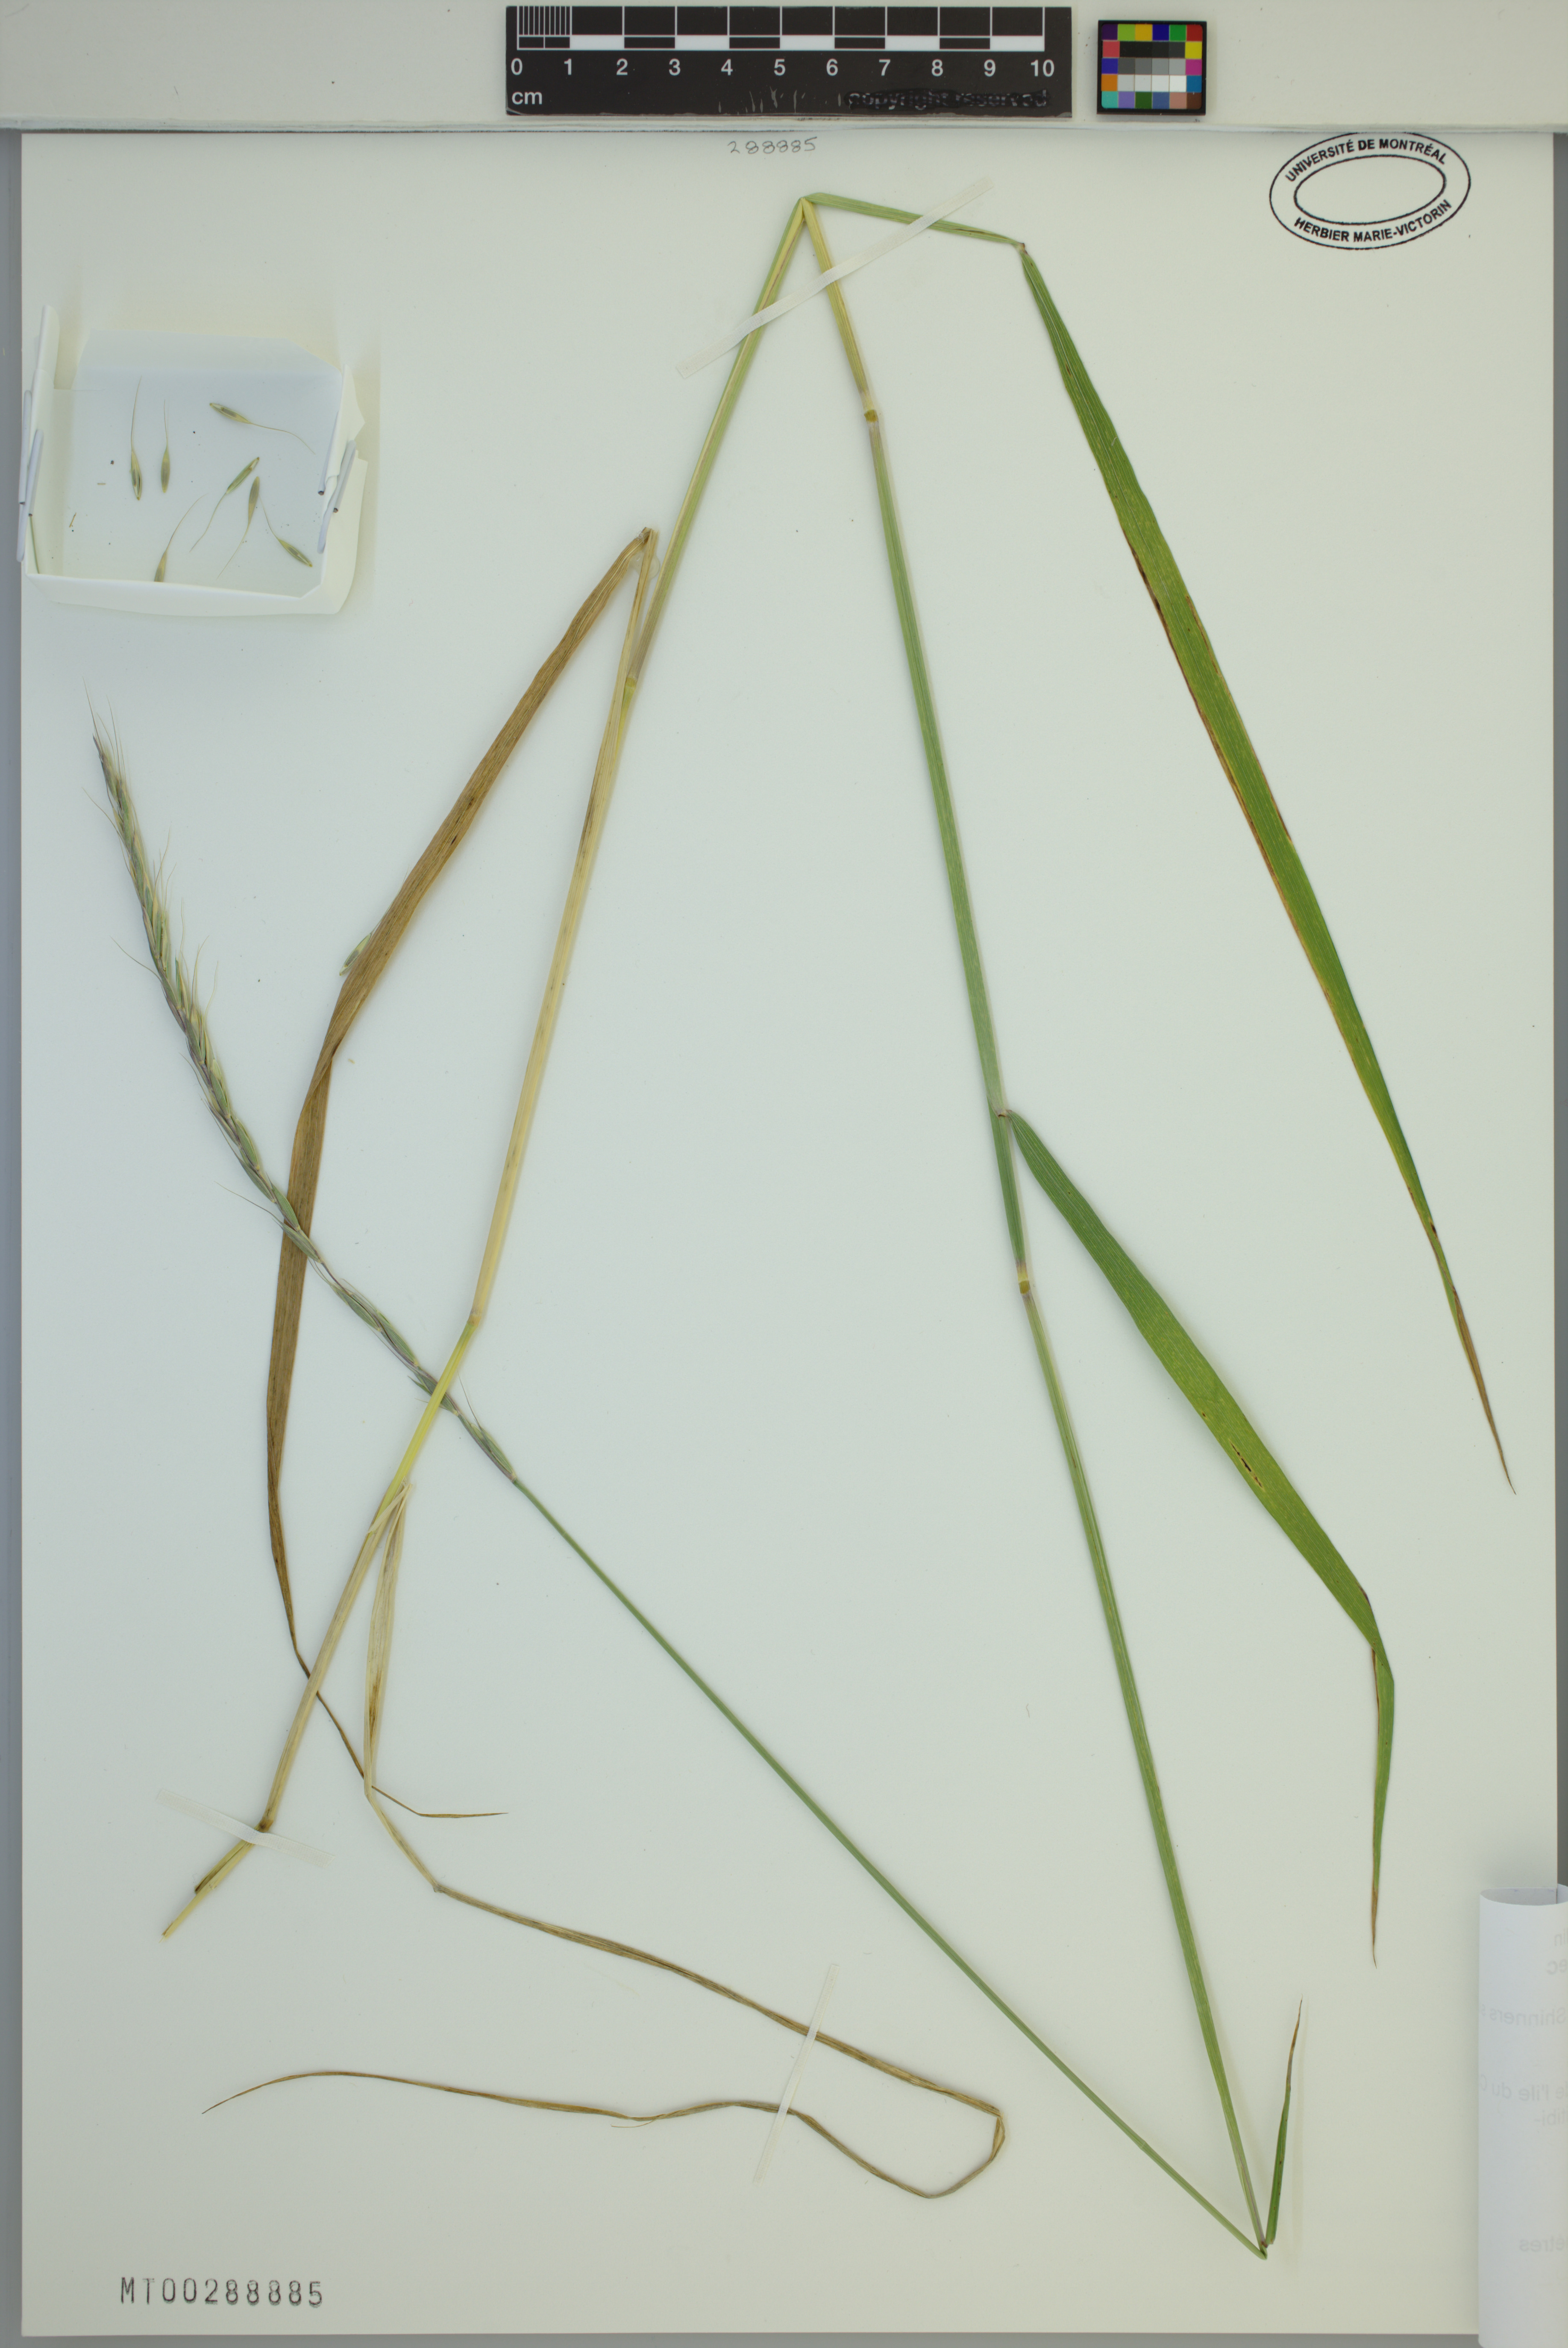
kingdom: Plantae
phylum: Tracheophyta
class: Liliopsida
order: Poales
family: Poaceae
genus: Elymus
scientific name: Elymus violaceus
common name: Arctic wheatgrass
